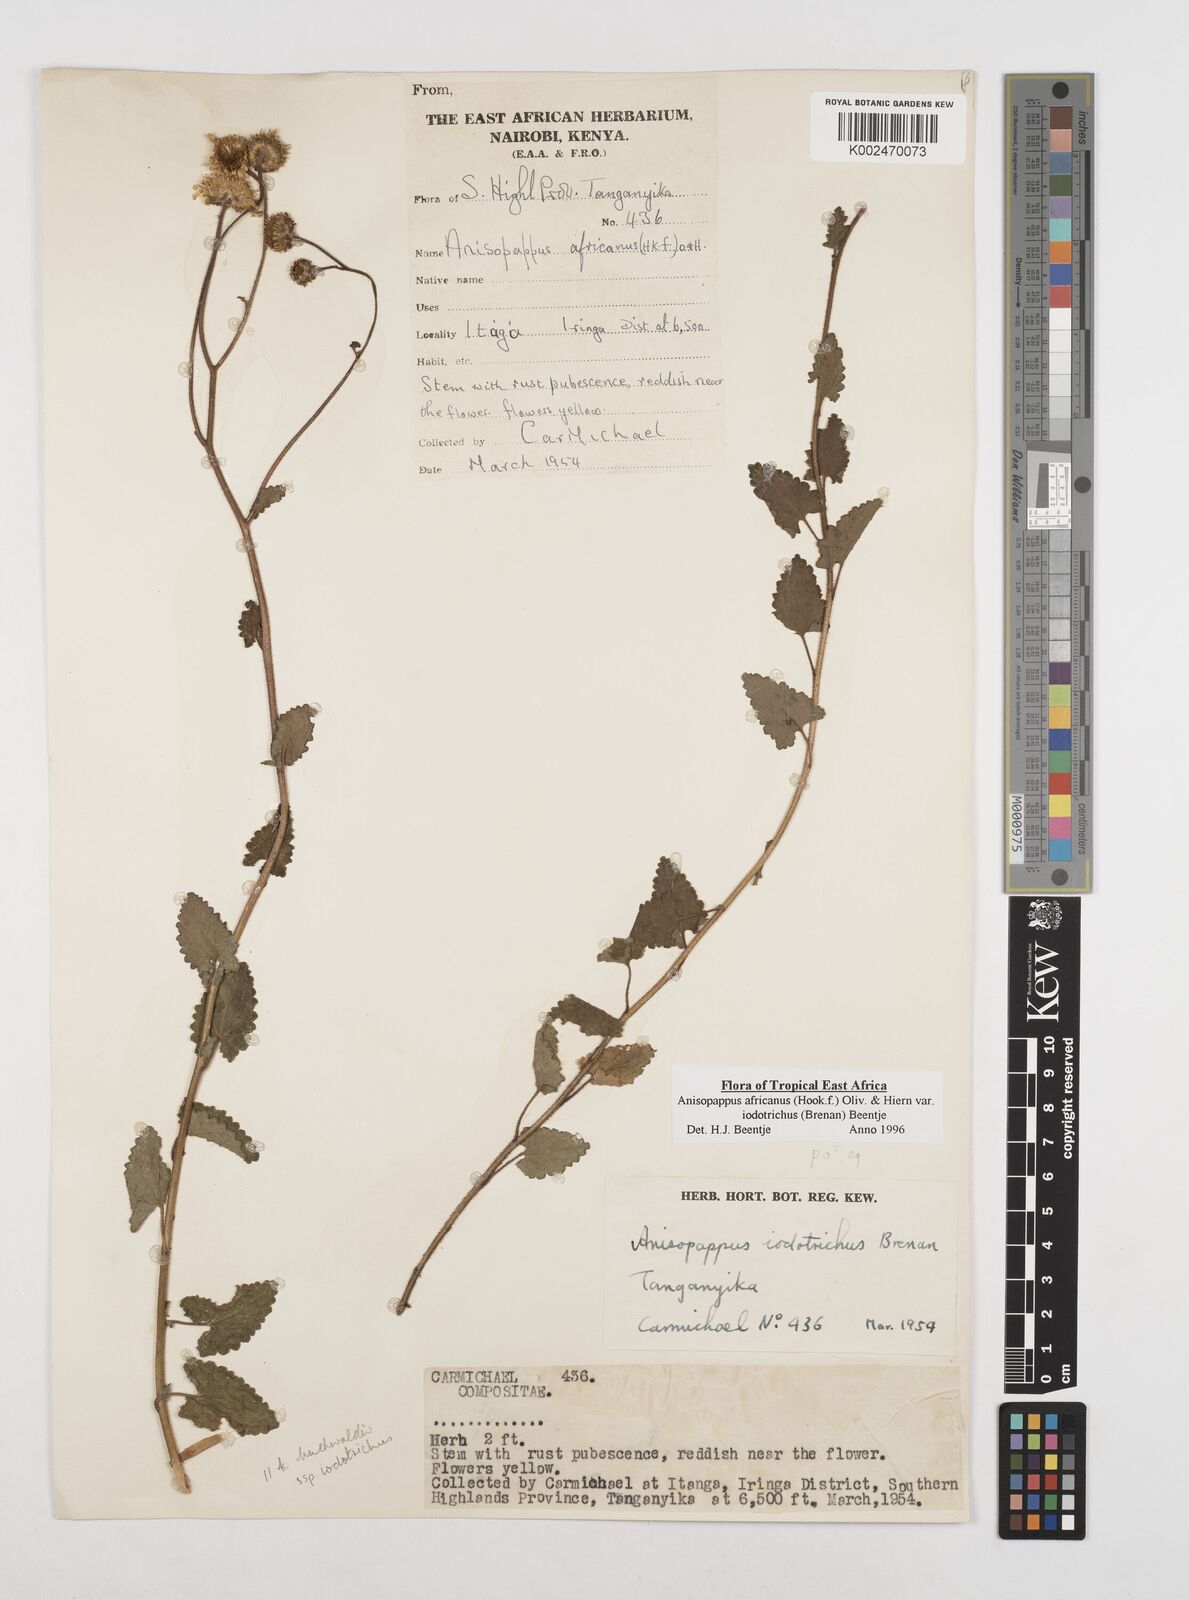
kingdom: Plantae
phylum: Tracheophyta
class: Magnoliopsida
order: Asterales
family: Asteraceae
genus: Anisopappus
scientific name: Anisopappus africanus
